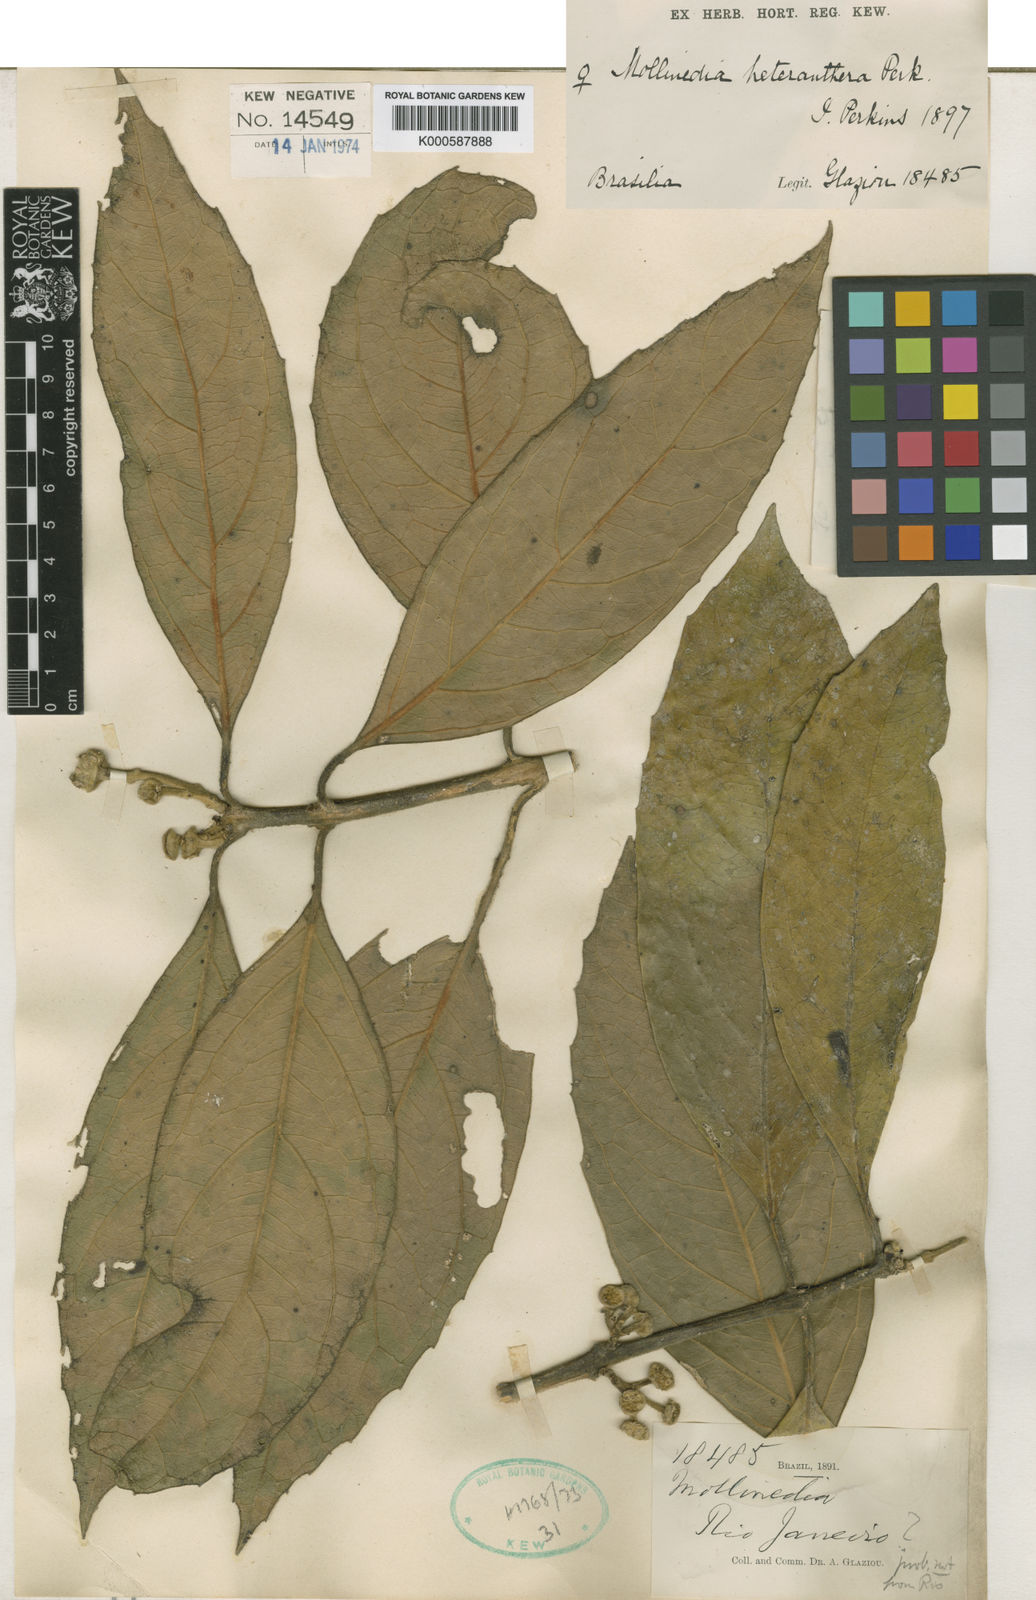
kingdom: Plantae
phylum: Tracheophyta
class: Magnoliopsida
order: Laurales
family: Monimiaceae
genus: Mollinedia
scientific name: Mollinedia heteranthera
